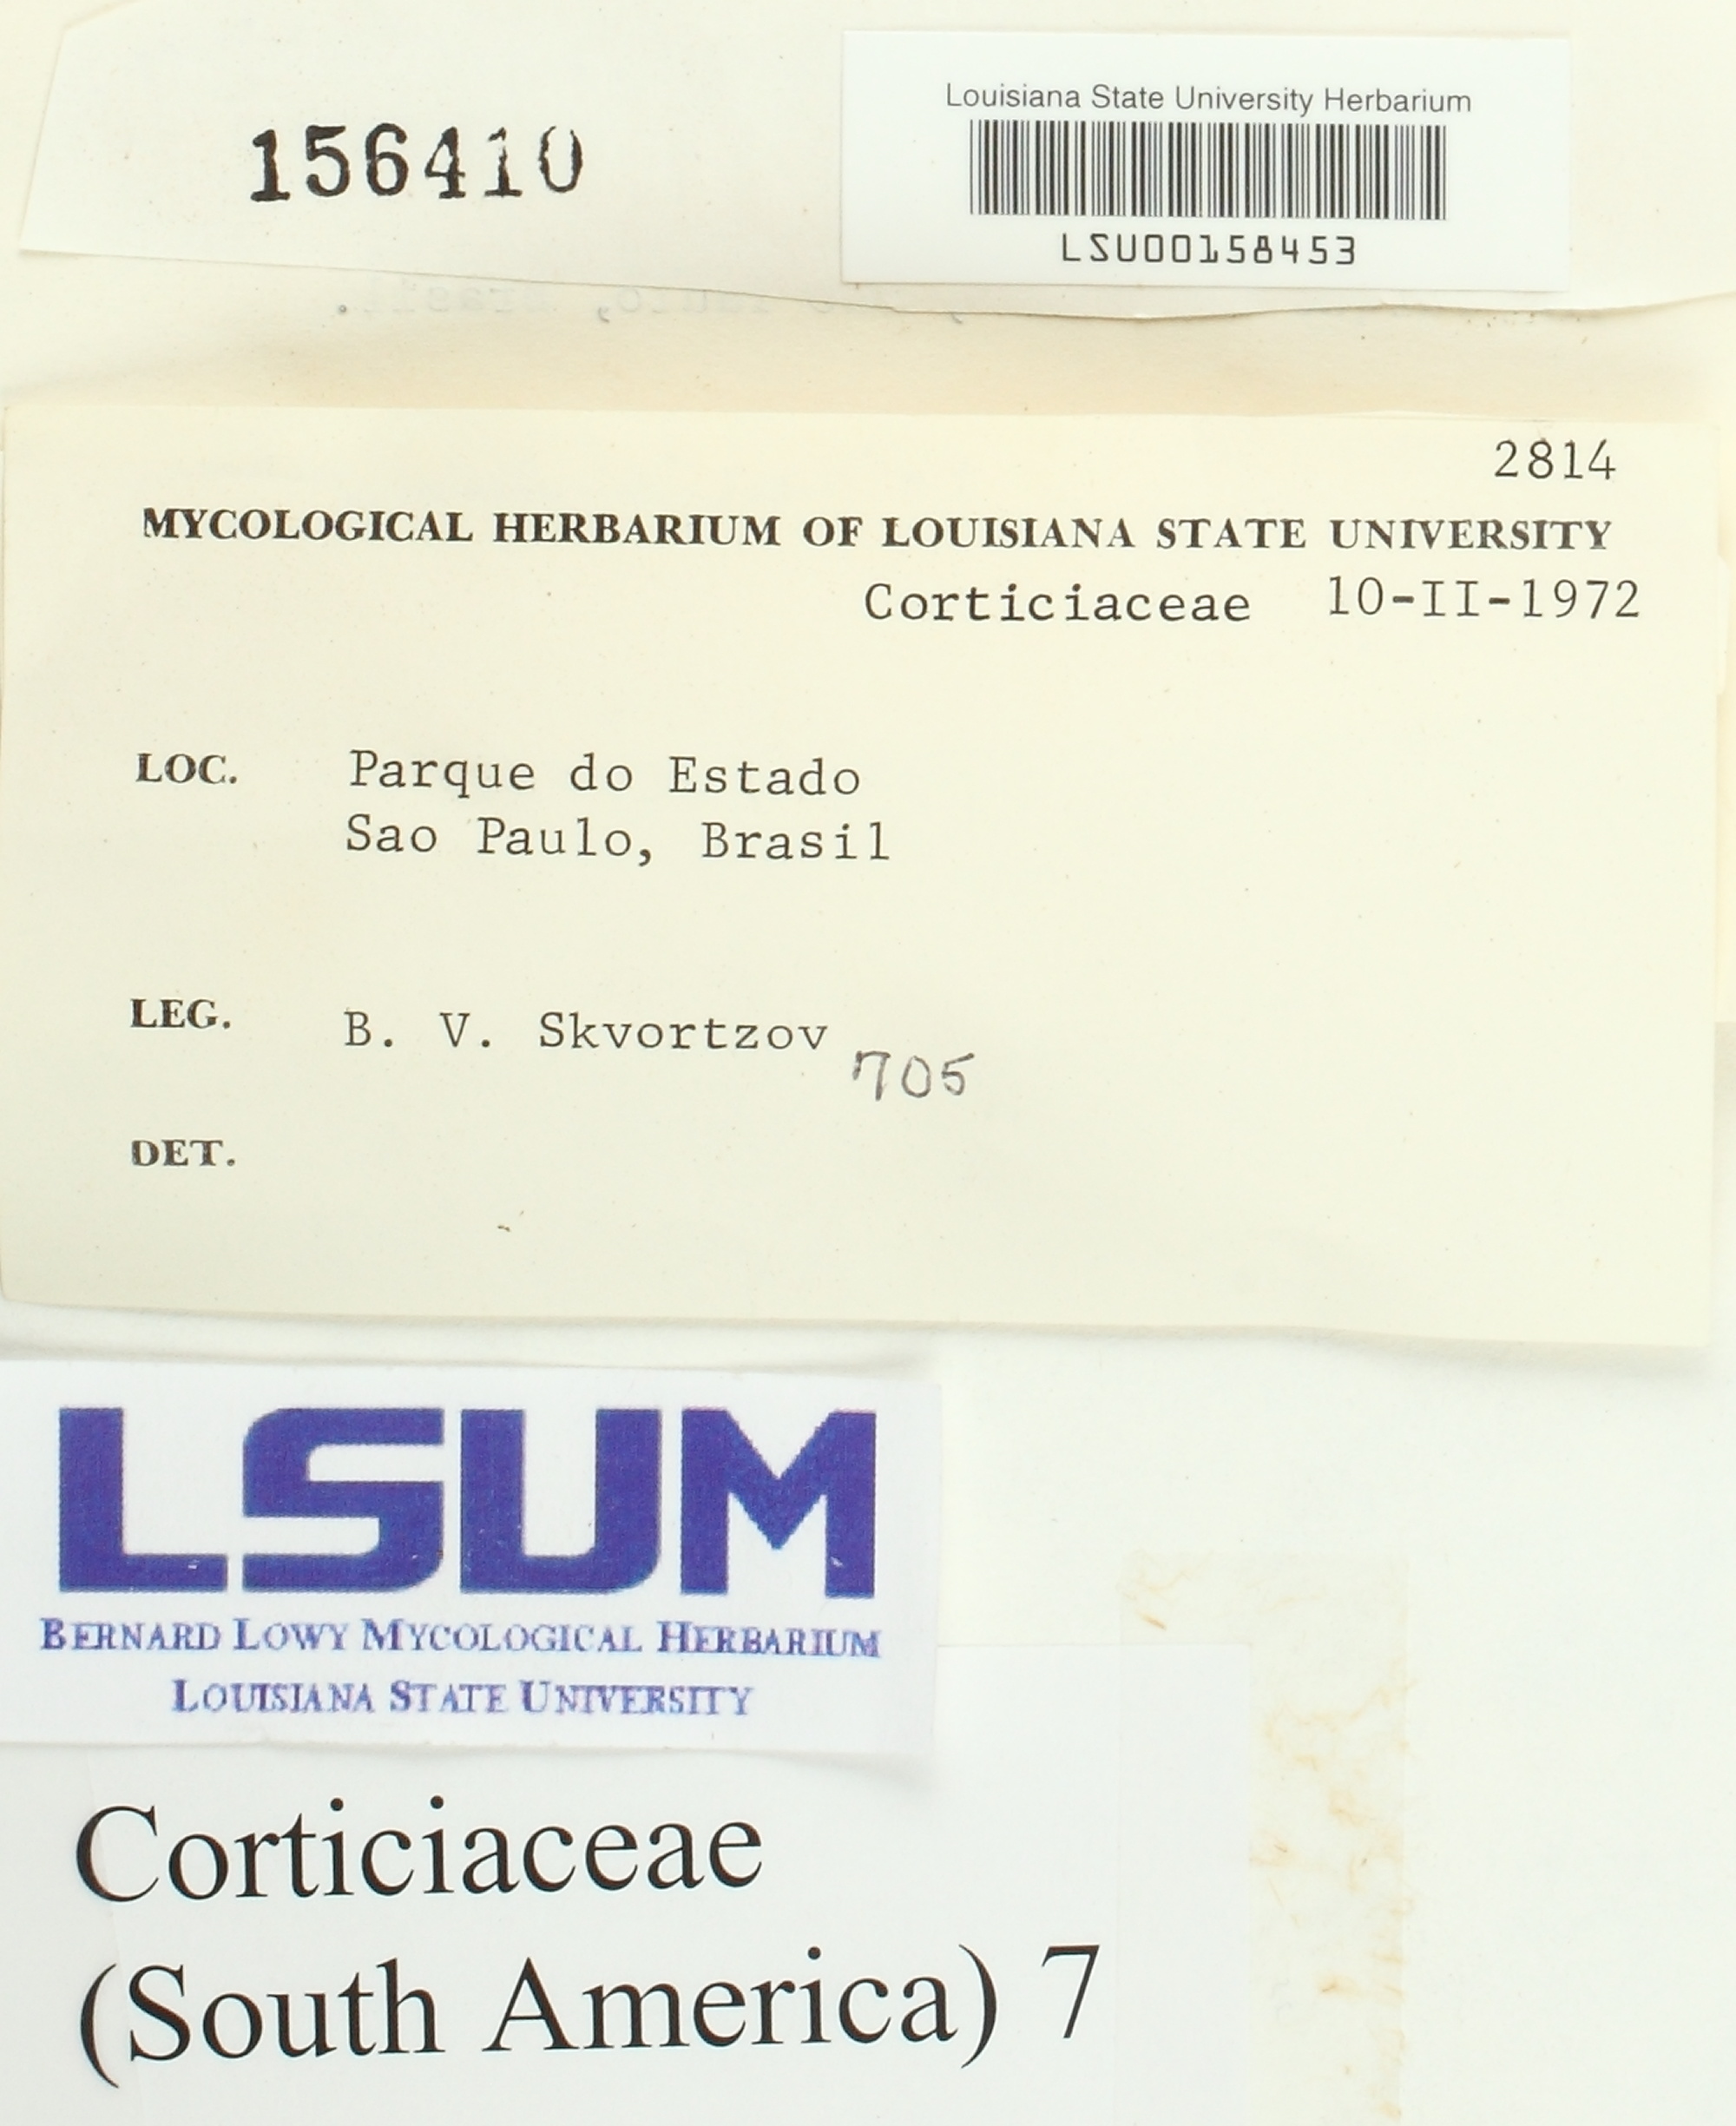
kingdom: Fungi
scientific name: Fungi
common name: Fungi
